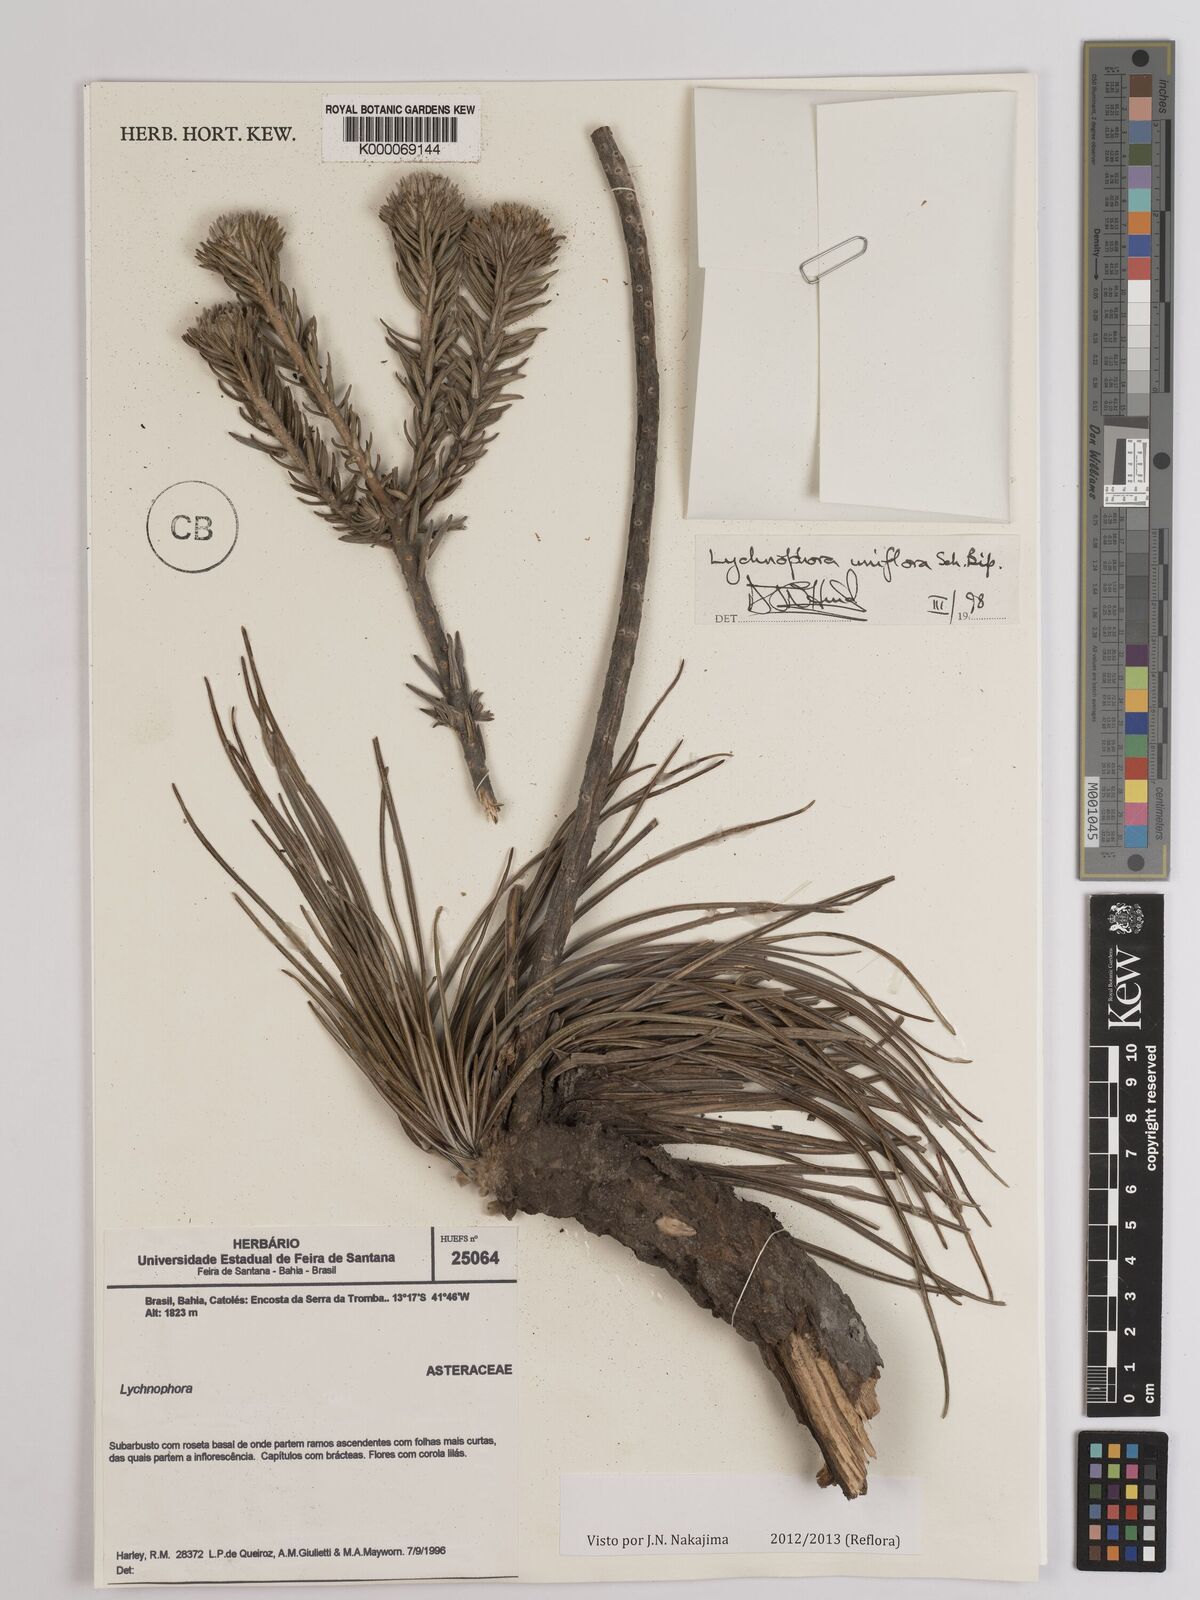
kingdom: Plantae
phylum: Tracheophyta
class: Magnoliopsida
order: Asterales
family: Asteraceae
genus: Lychnophora
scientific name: Lychnophora uniflora
